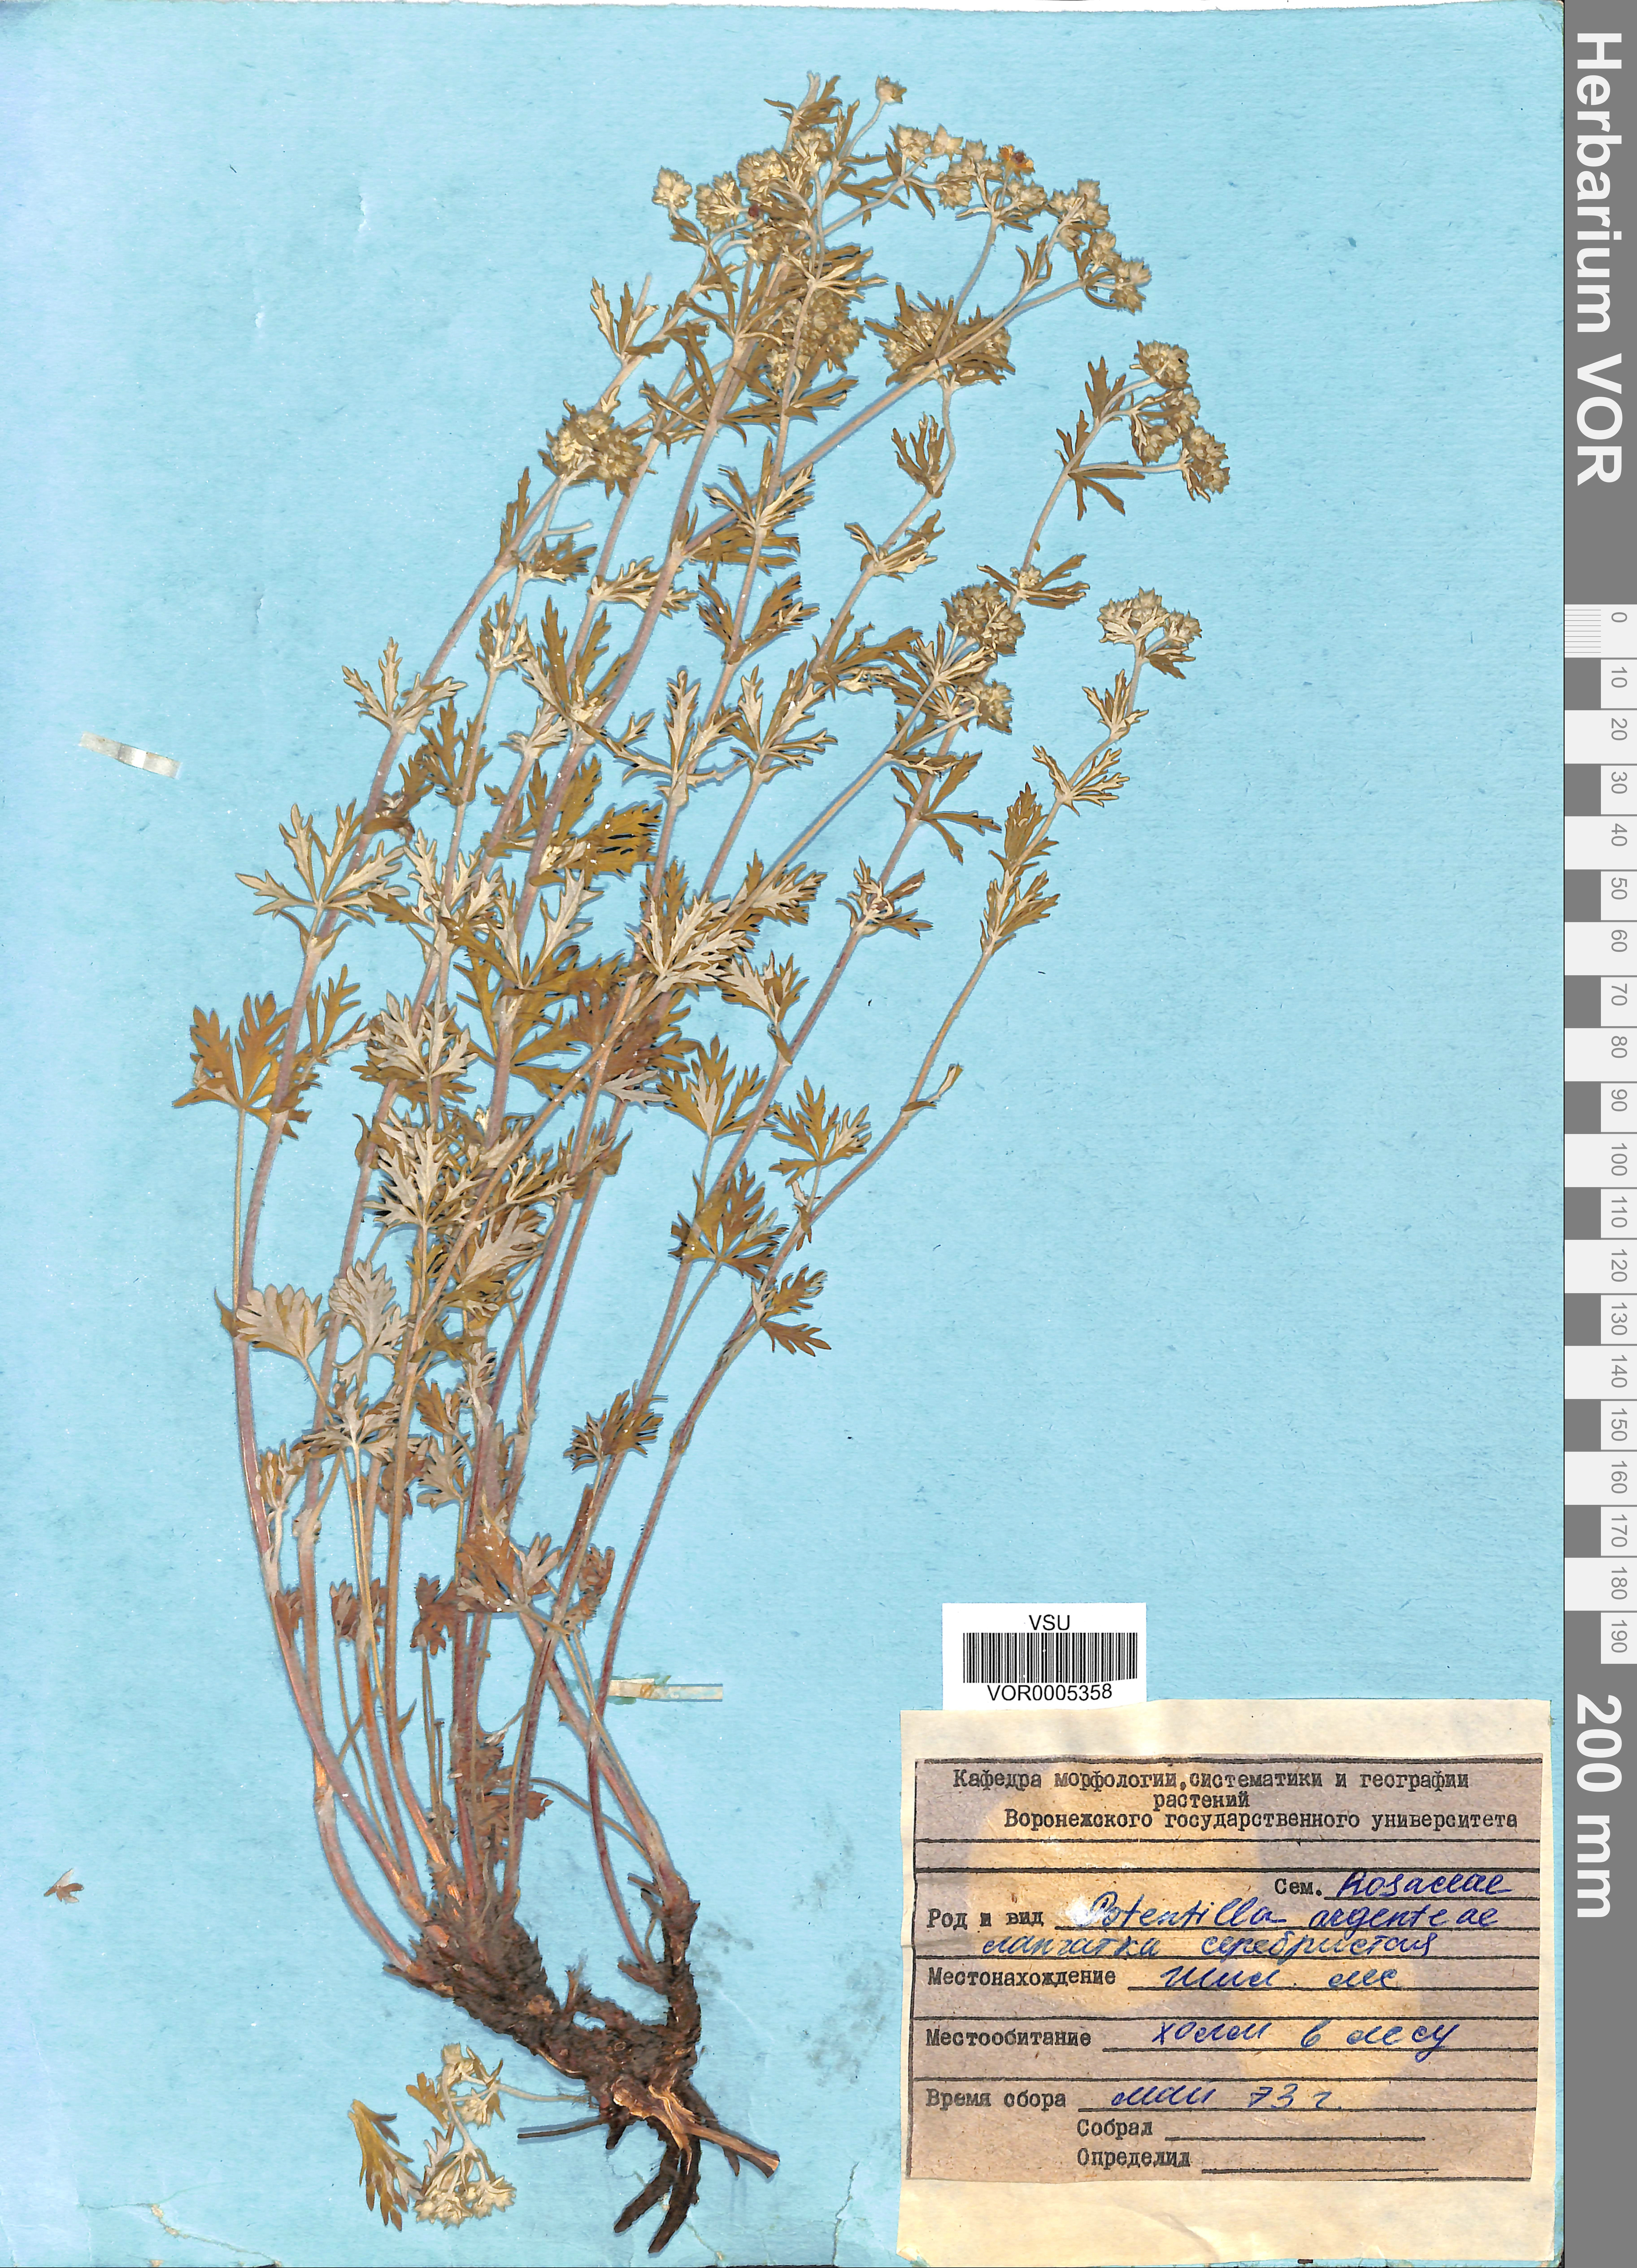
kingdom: Plantae
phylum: Tracheophyta
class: Magnoliopsida
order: Rosales
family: Rosaceae
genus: Potentilla
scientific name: Potentilla argentea
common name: Hoary cinquefoil
